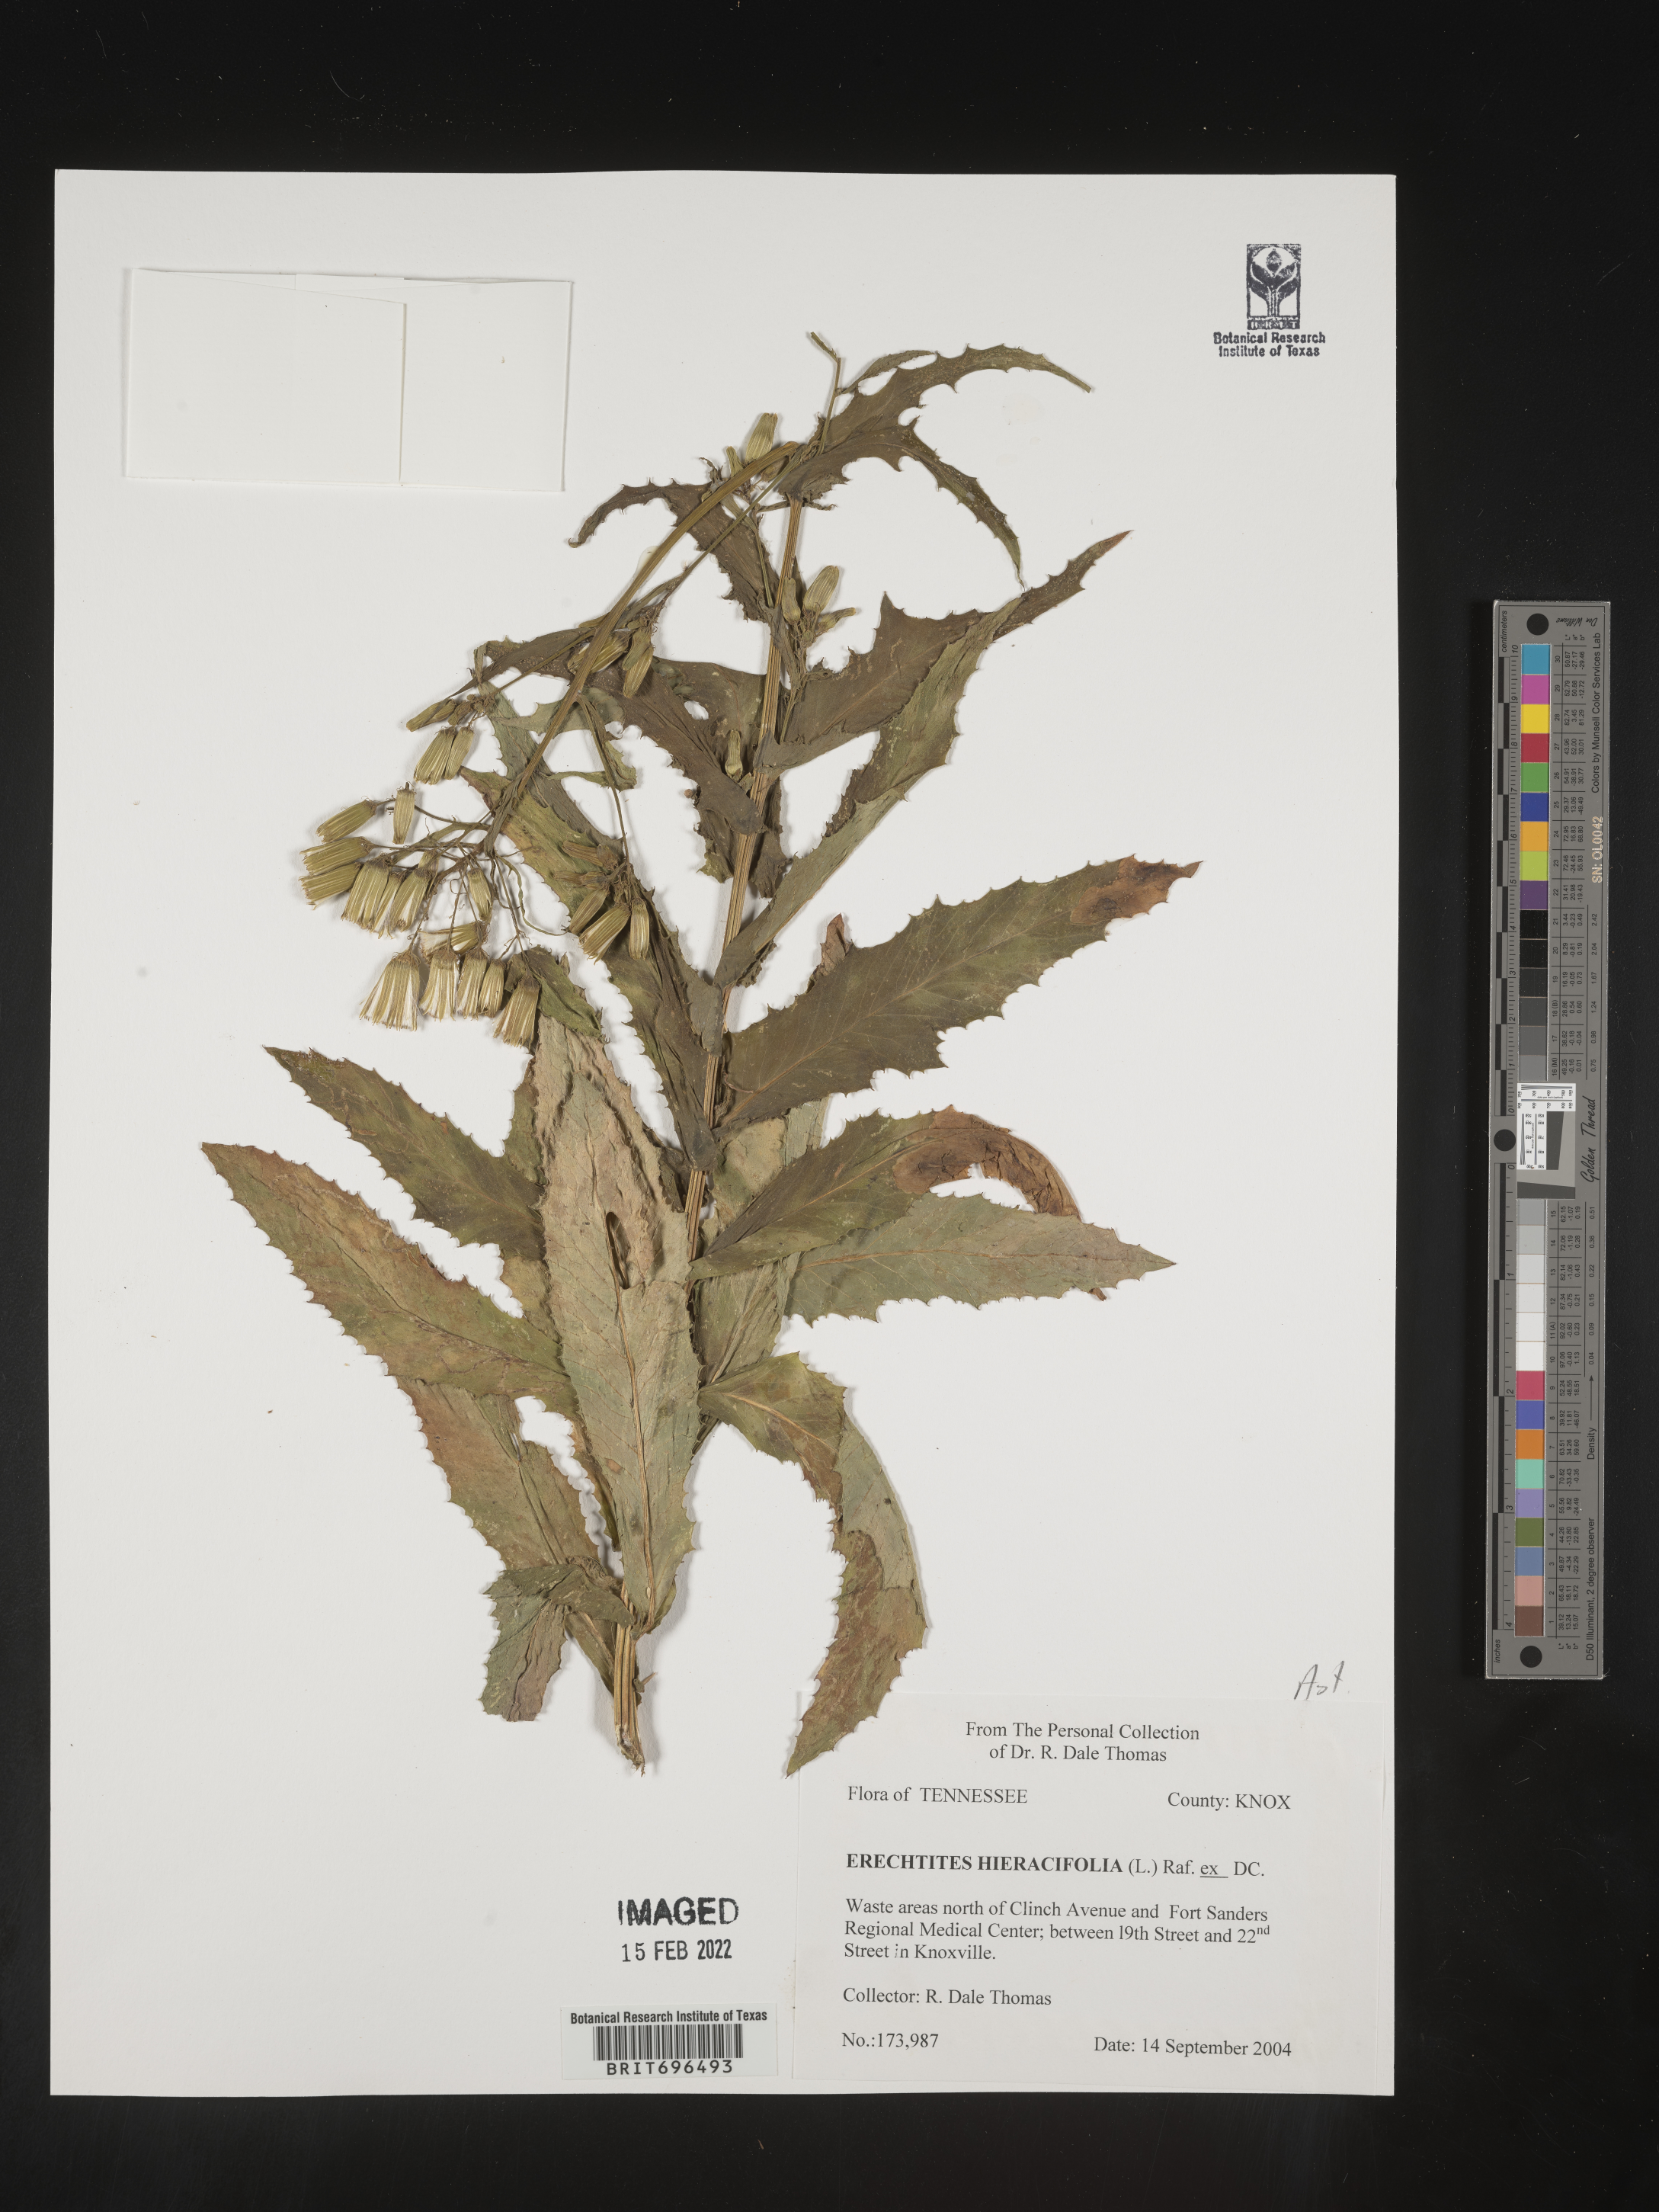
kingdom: Plantae
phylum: Tracheophyta
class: Magnoliopsida
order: Asterales
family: Asteraceae
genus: Erechtites
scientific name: Erechtites hieraciifolius
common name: American burnweed
